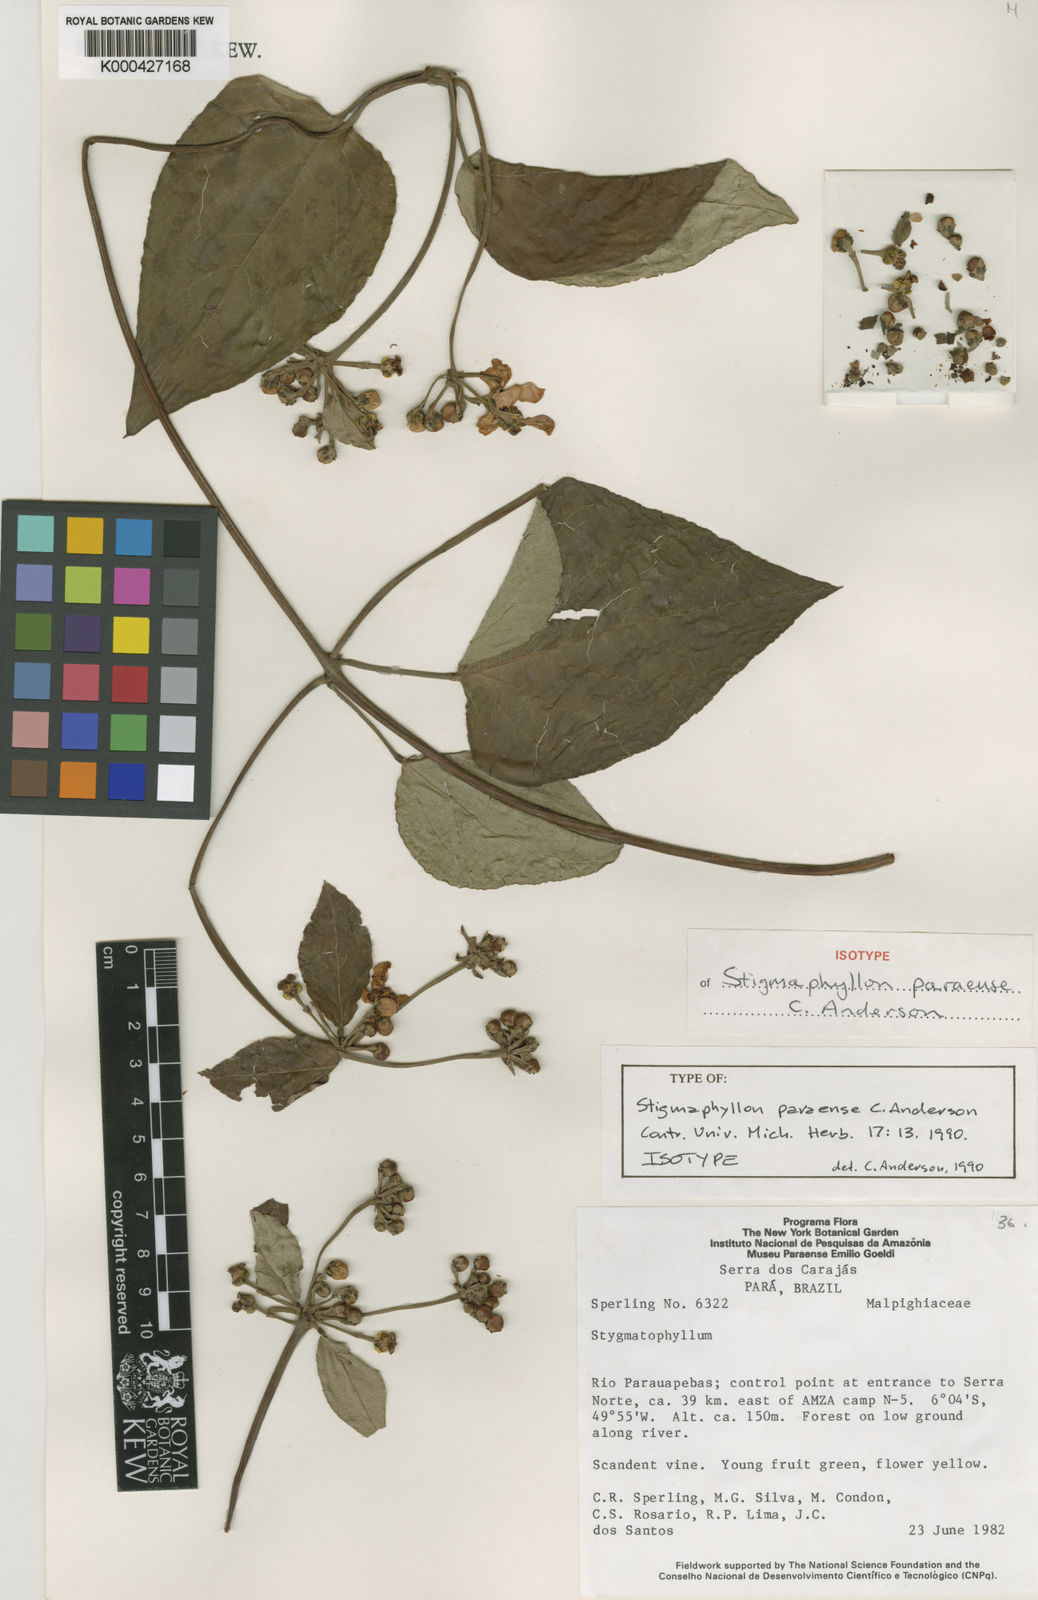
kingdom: Plantae
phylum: Tracheophyta
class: Magnoliopsida
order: Malpighiales
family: Malpighiaceae
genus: Stigmaphyllon
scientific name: Stigmaphyllon paraense
